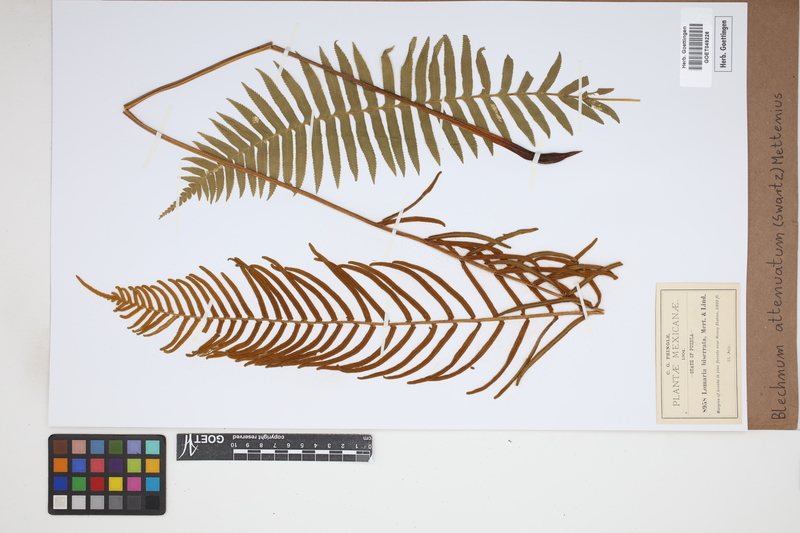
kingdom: Plantae
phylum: Tracheophyta
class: Polypodiopsida
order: Polypodiales
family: Blechnaceae
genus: Lomaridium
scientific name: Lomaridium attenuatum
